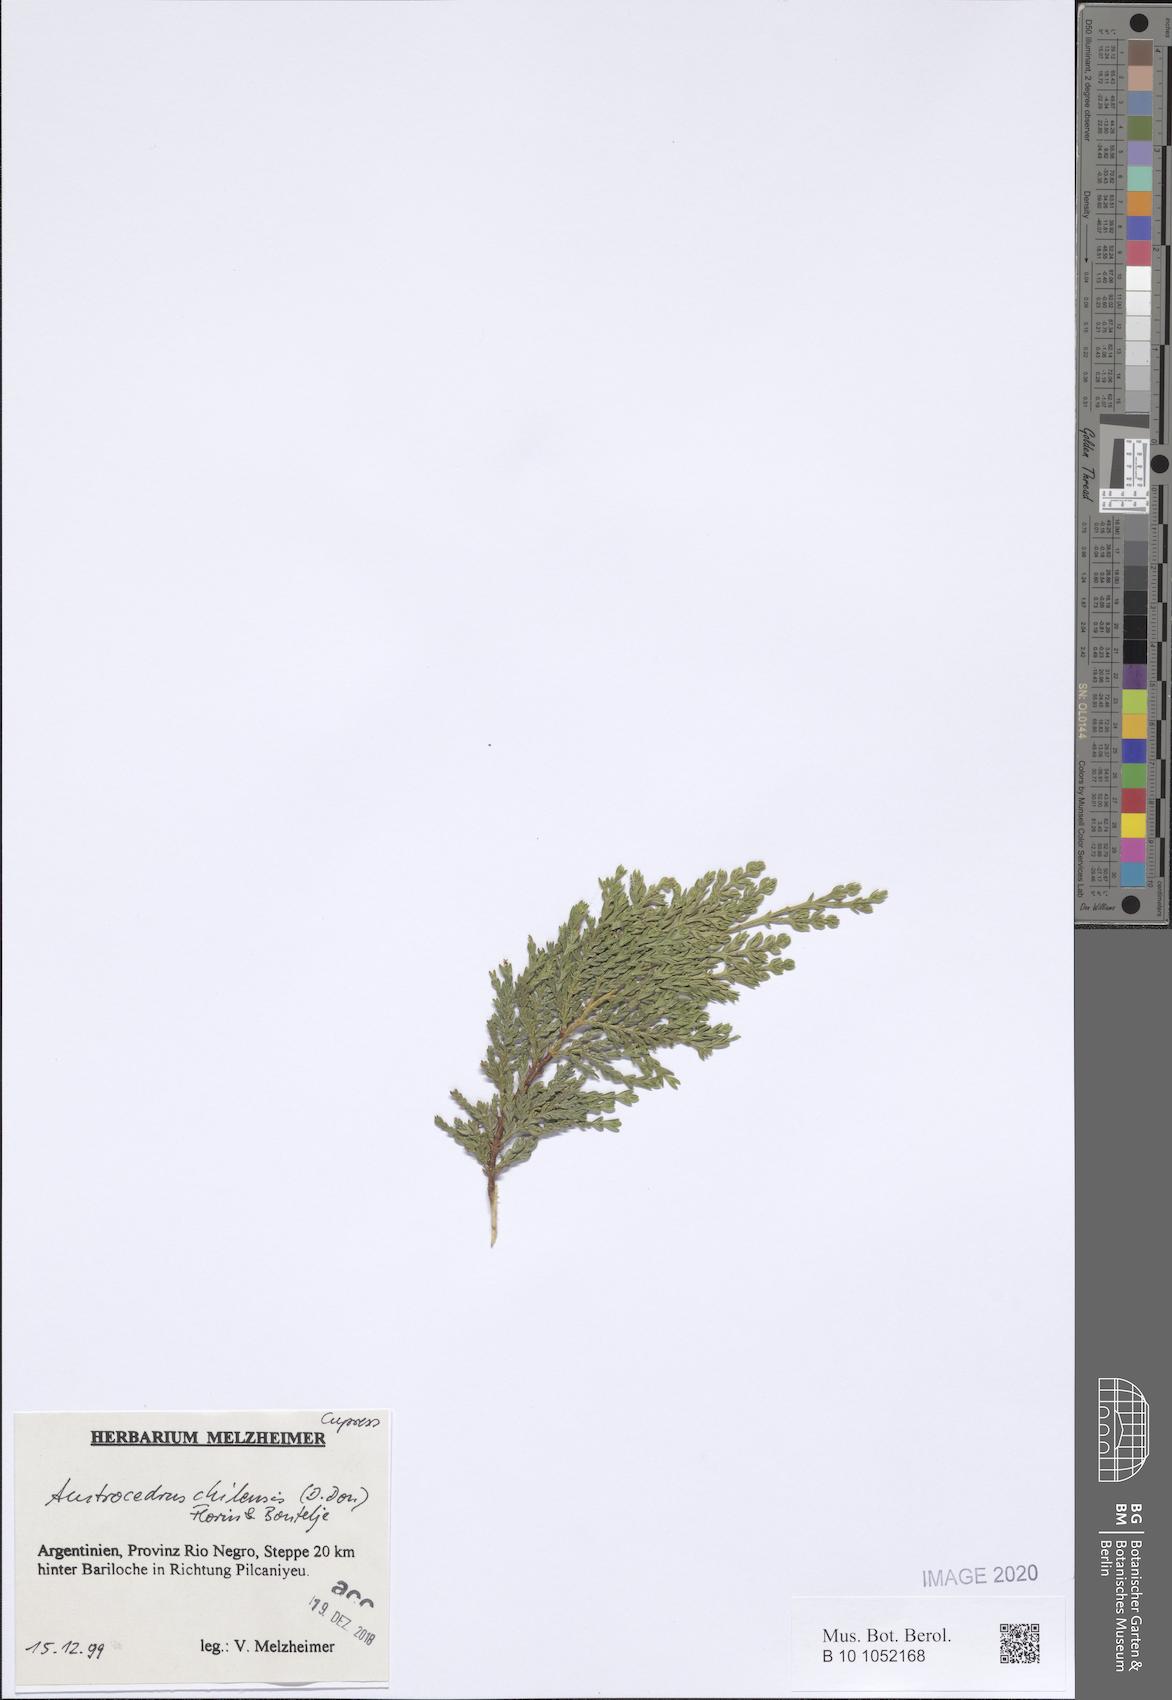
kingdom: Plantae
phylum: Tracheophyta
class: Pinopsida
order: Pinales
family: Cupressaceae
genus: Austrocedrus
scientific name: Austrocedrus chilensis
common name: Chilean incense-cedar
